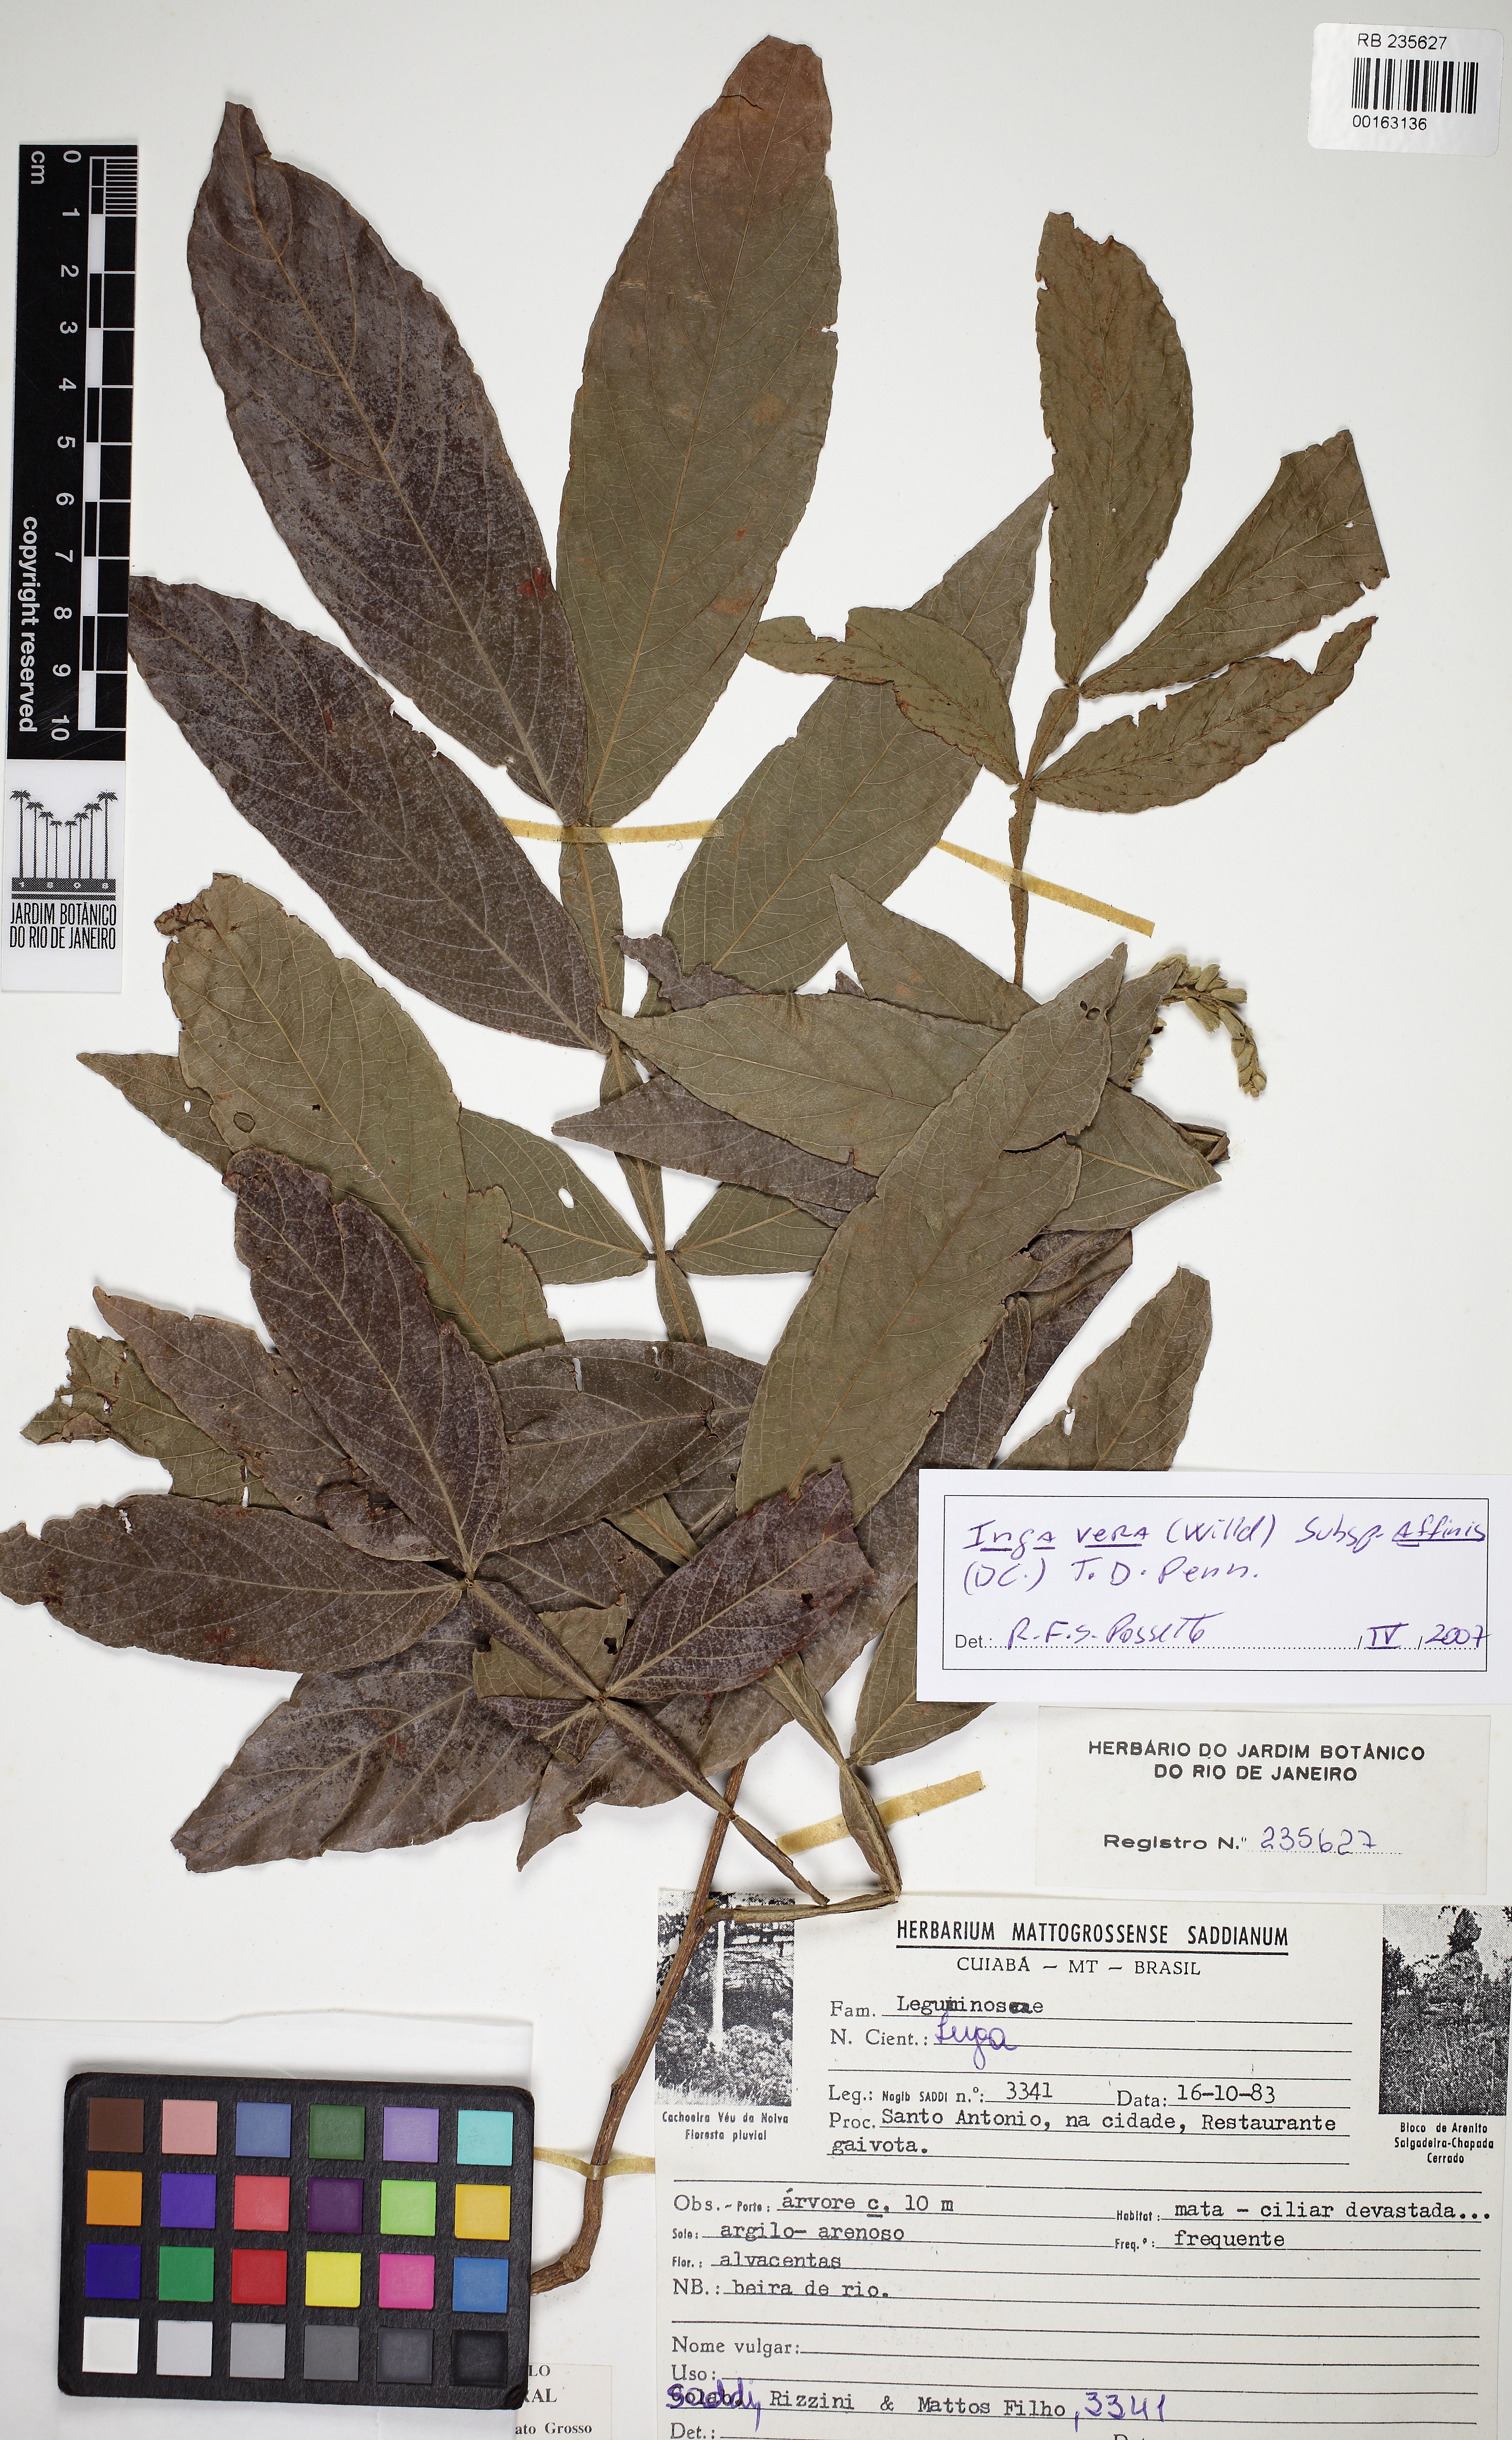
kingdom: Plantae
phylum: Tracheophyta
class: Magnoliopsida
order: Fabales
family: Fabaceae
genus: Inga
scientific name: Inga affinis
